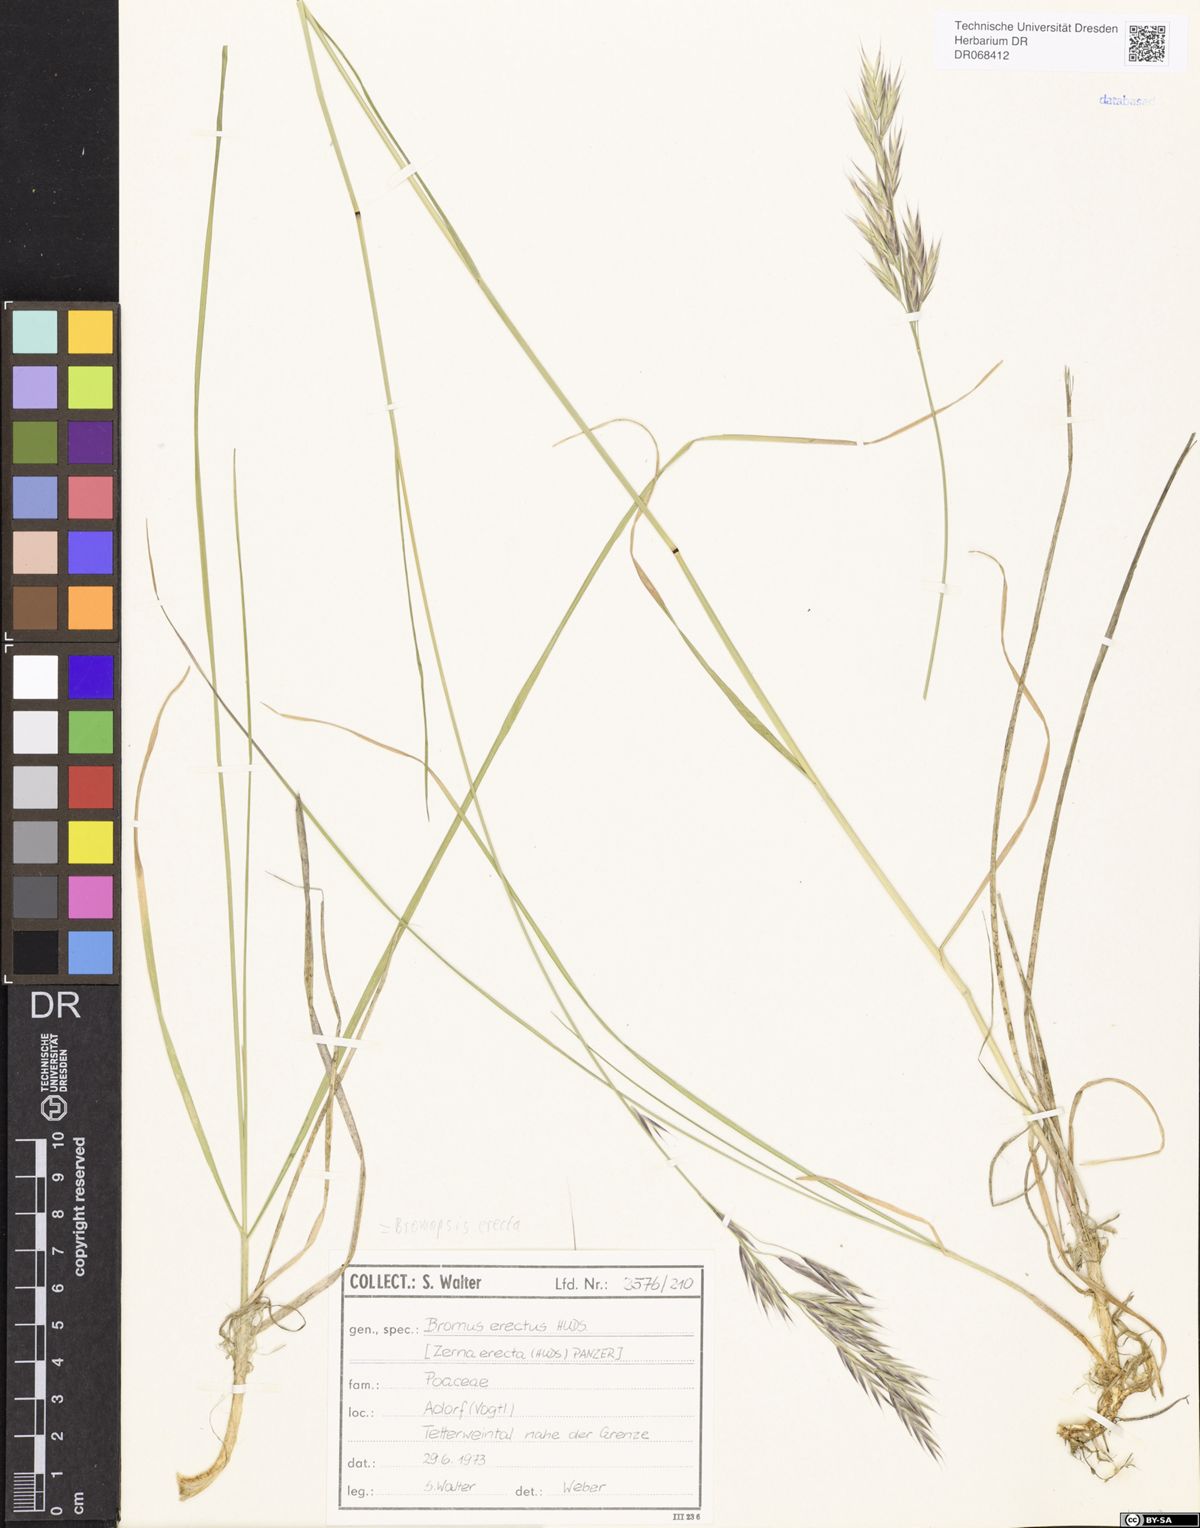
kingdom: Plantae
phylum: Tracheophyta
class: Liliopsida
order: Poales
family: Poaceae
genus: Bromus
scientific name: Bromus erectus
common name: Erect brome
